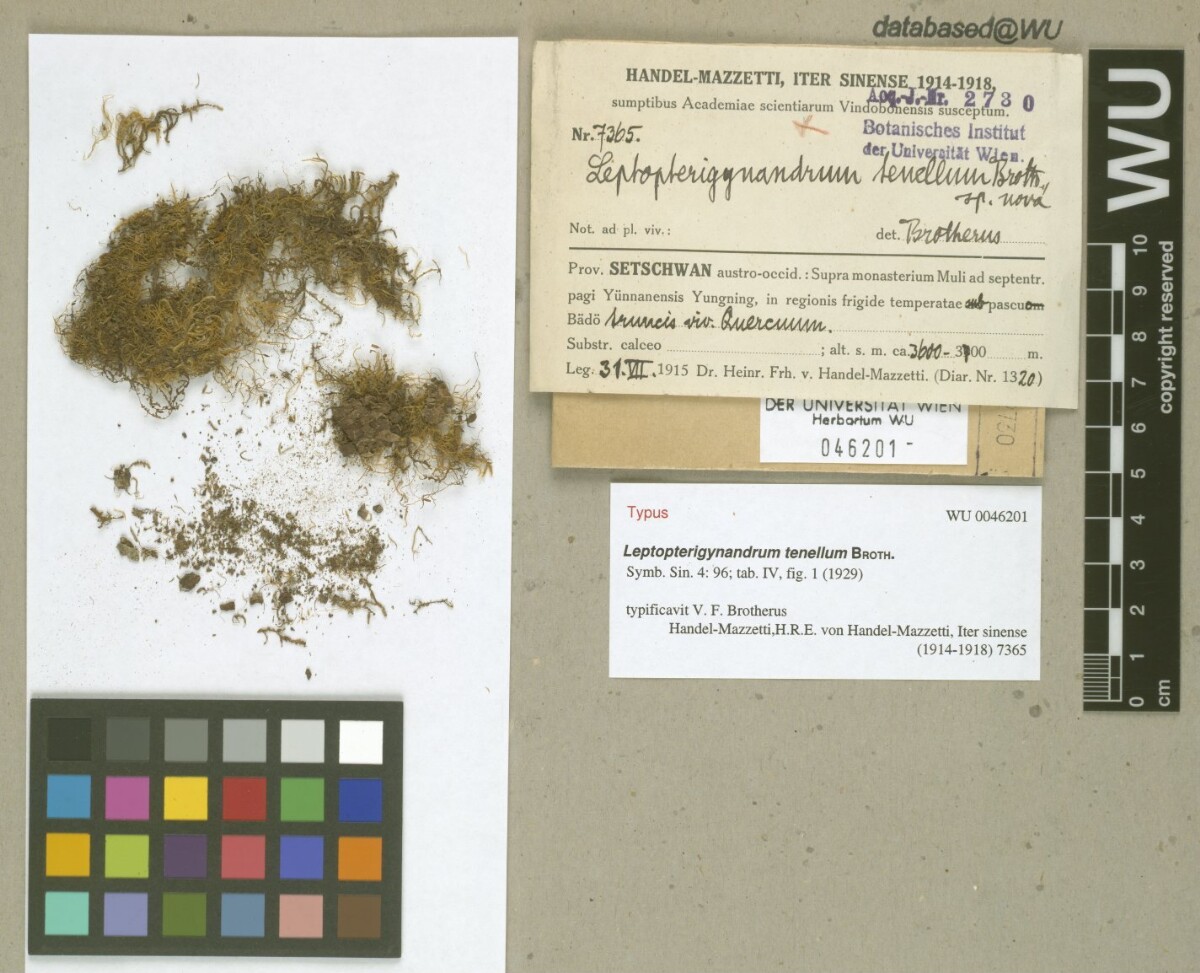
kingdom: Plantae
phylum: Bryophyta
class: Bryopsida
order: Hypnales
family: Taxiphyllaceae
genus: Leptopterigynandrum
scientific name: Leptopterigynandrum tenellum
